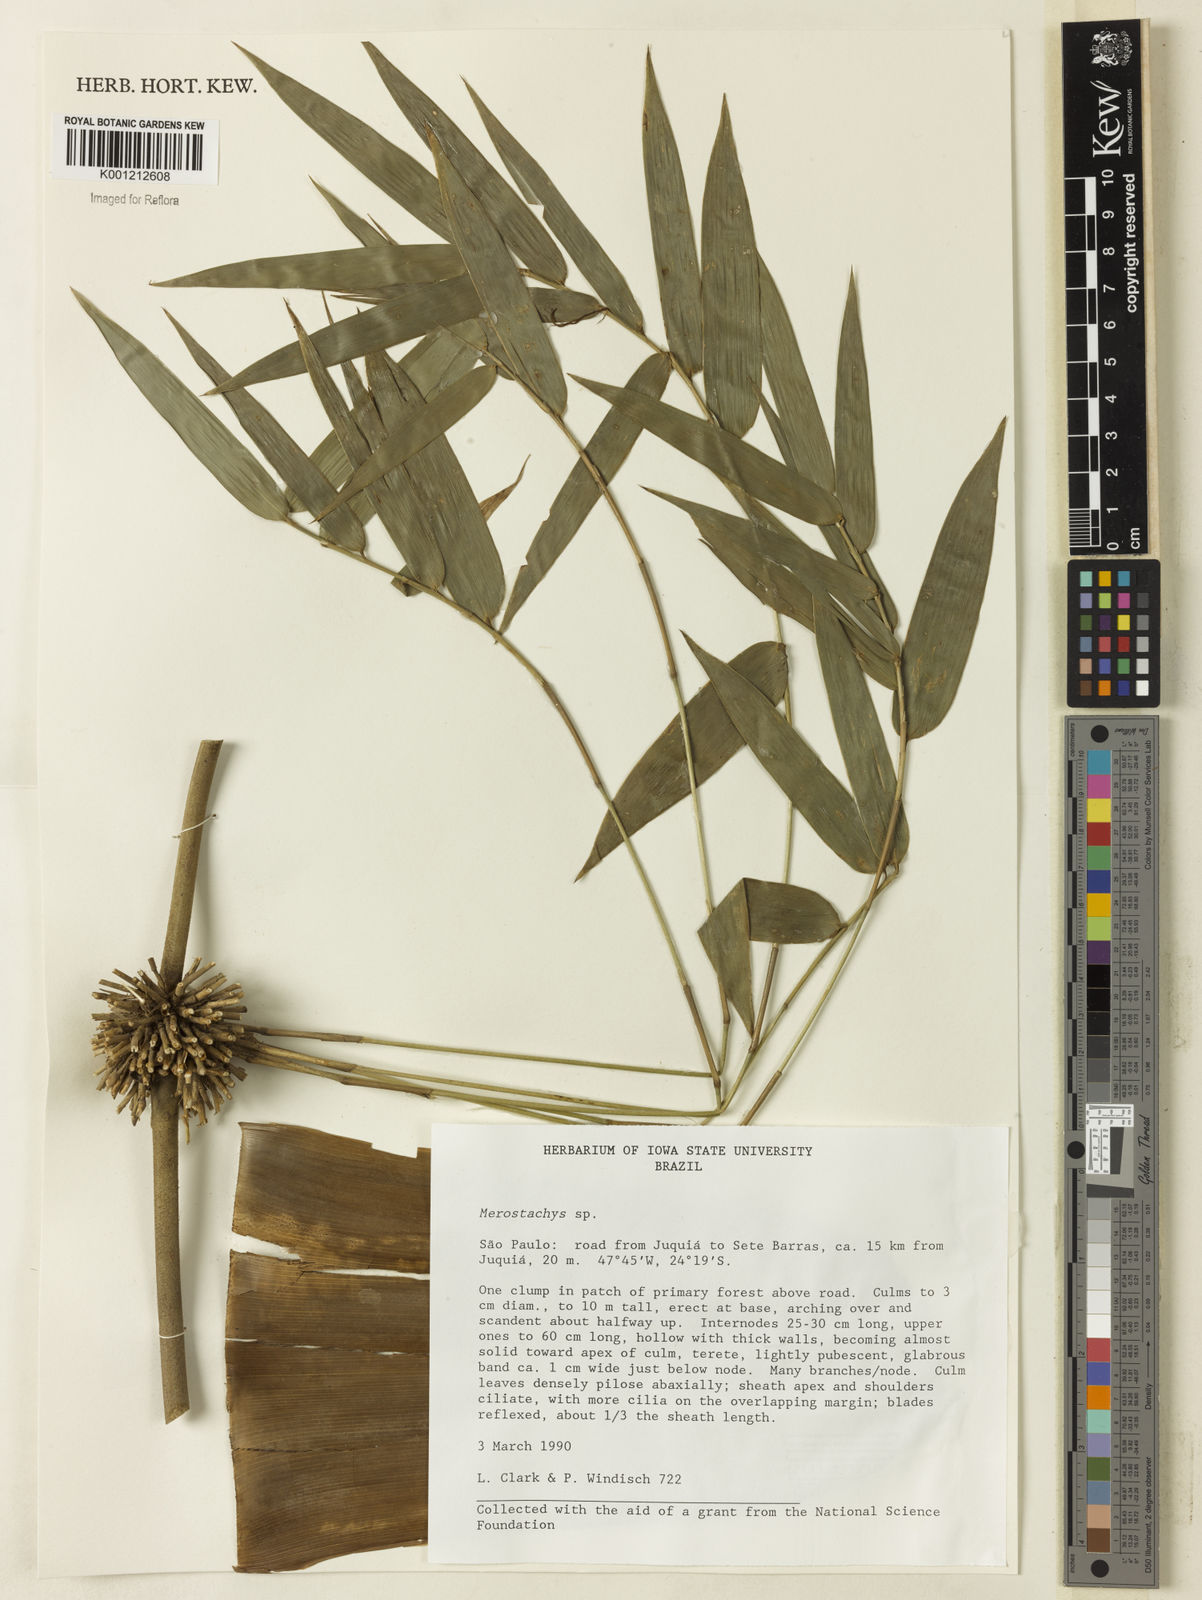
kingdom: Plantae
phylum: Tracheophyta
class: Liliopsida
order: Poales
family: Poaceae
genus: Merostachys
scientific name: Merostachys
